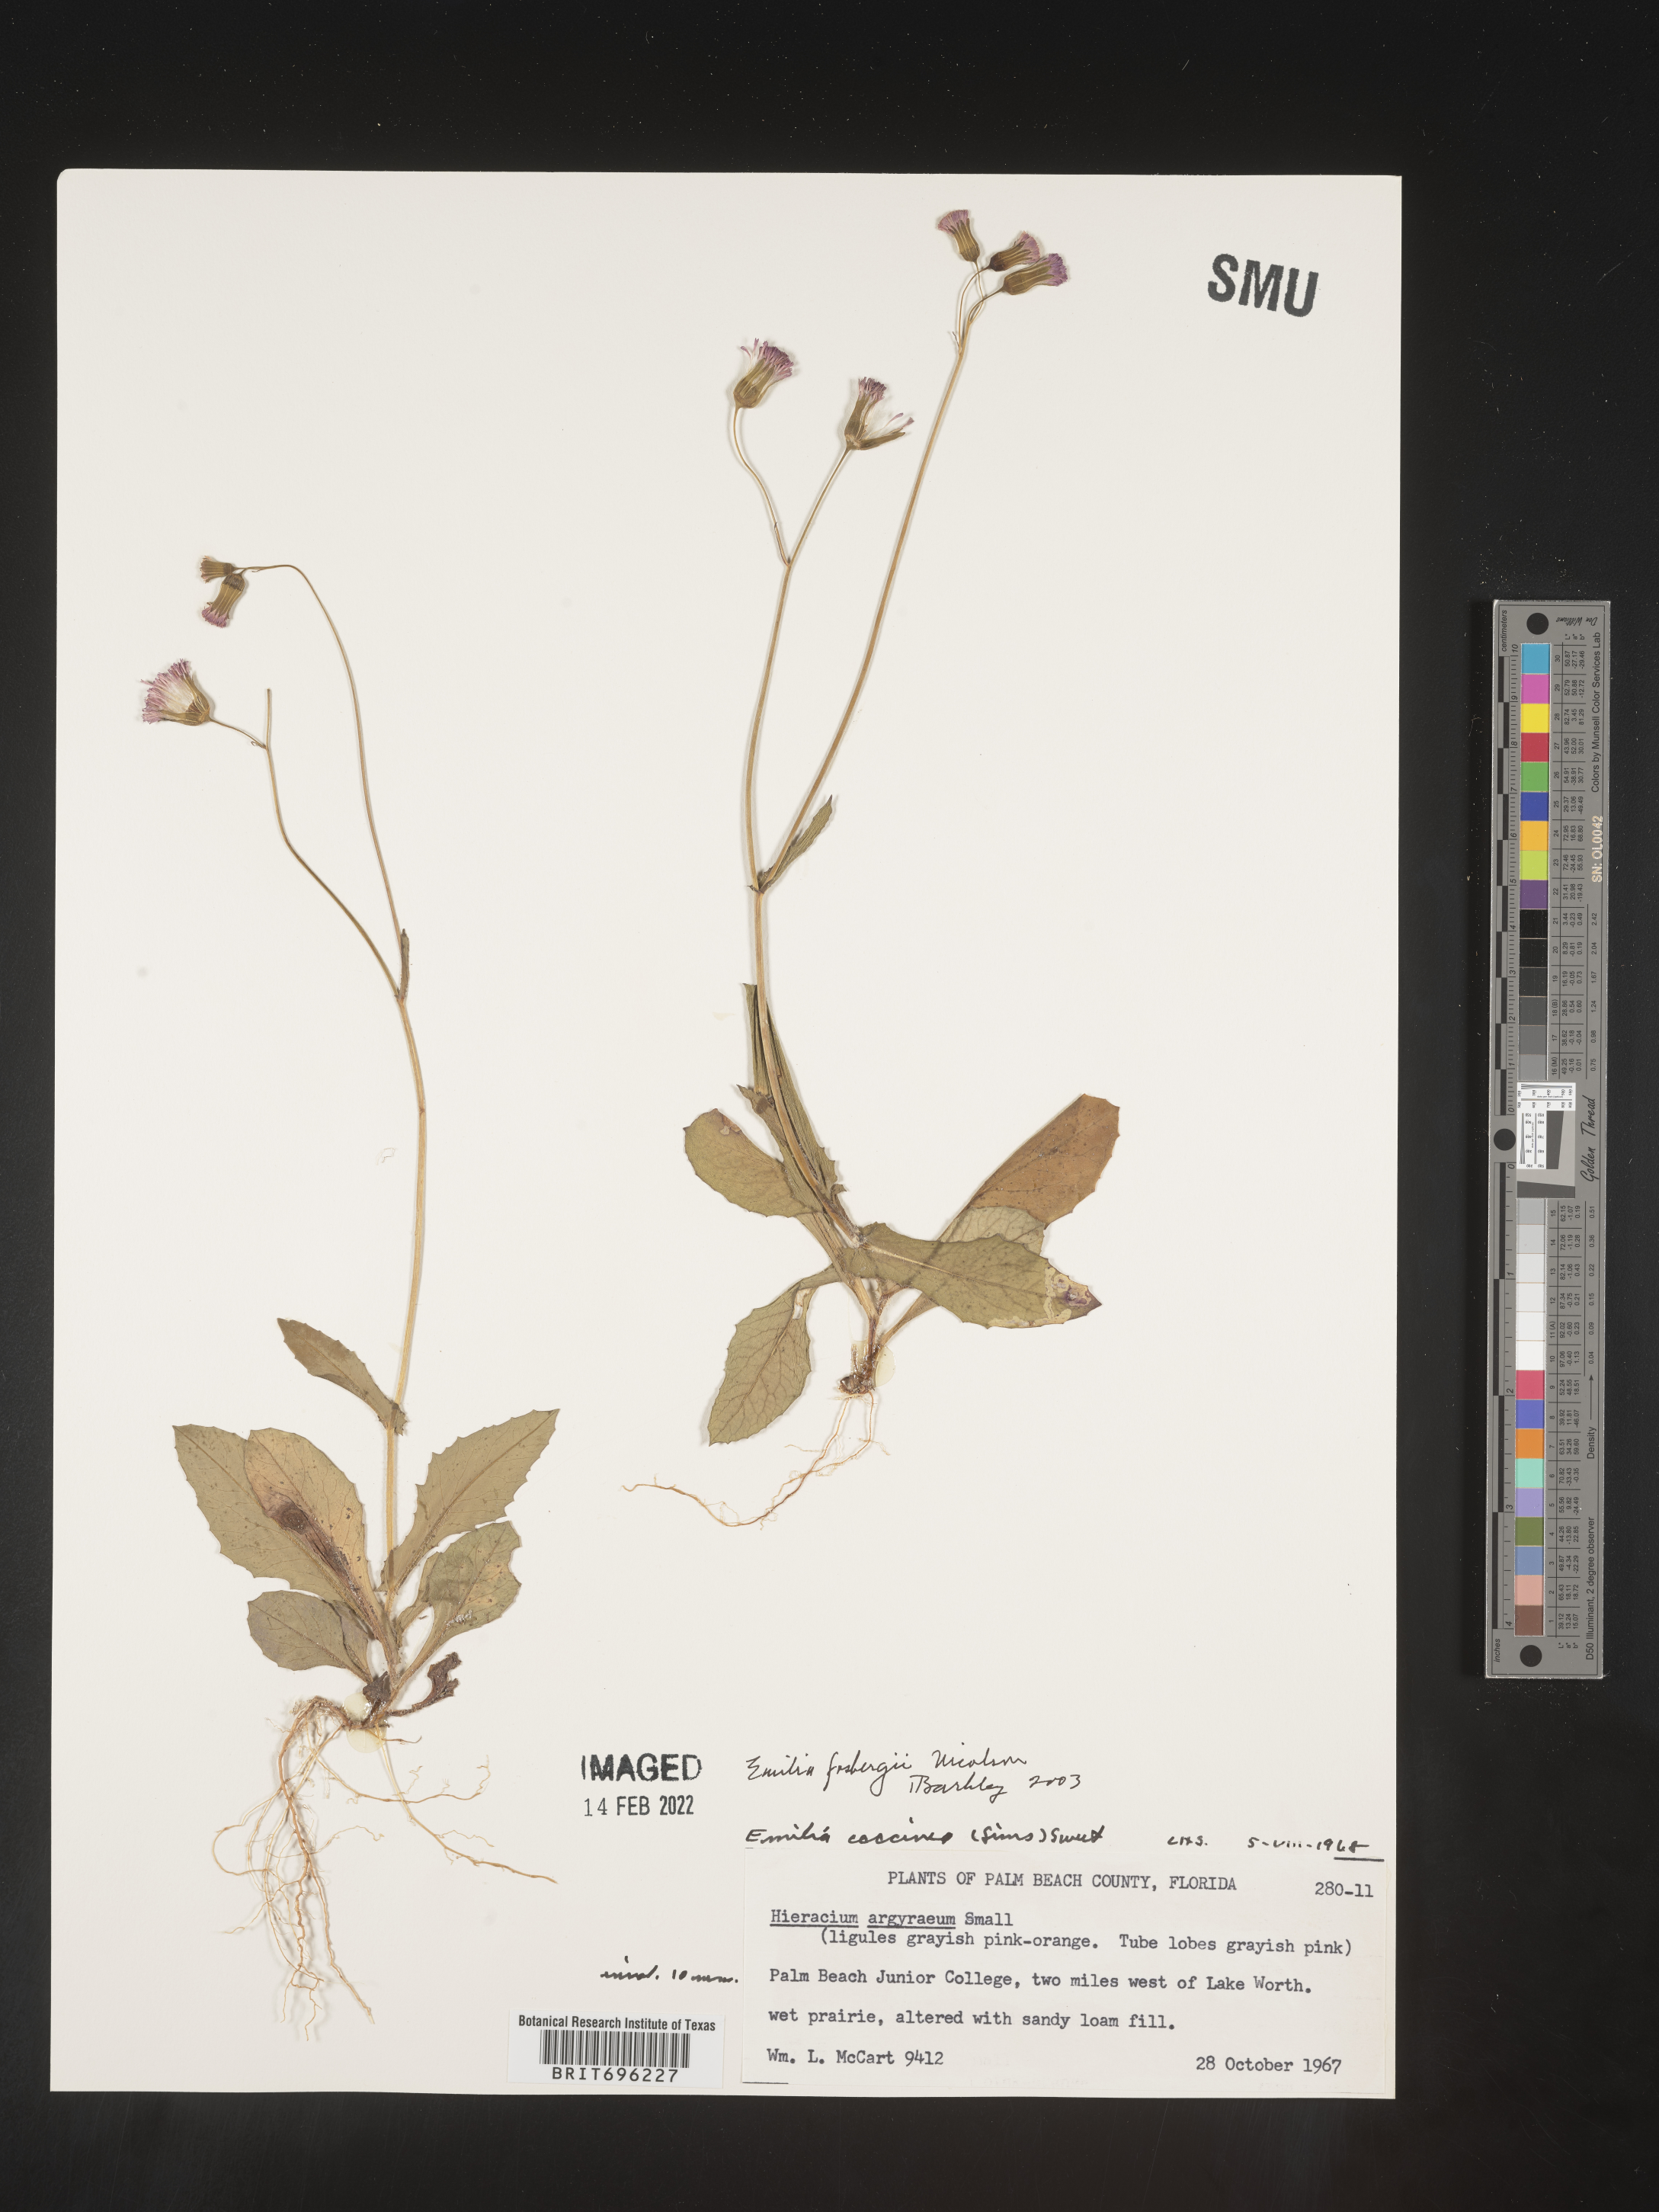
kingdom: Plantae
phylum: Tracheophyta
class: Magnoliopsida
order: Asterales
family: Asteraceae
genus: Emilia
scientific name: Emilia fosbergii
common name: Florida tasselflower
